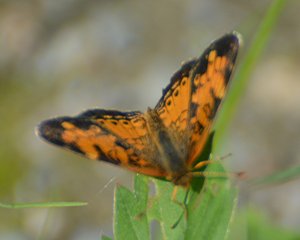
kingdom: Animalia
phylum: Arthropoda
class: Insecta
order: Lepidoptera
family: Nymphalidae
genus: Phyciodes
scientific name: Phyciodes tharos
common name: Northern Crescent
